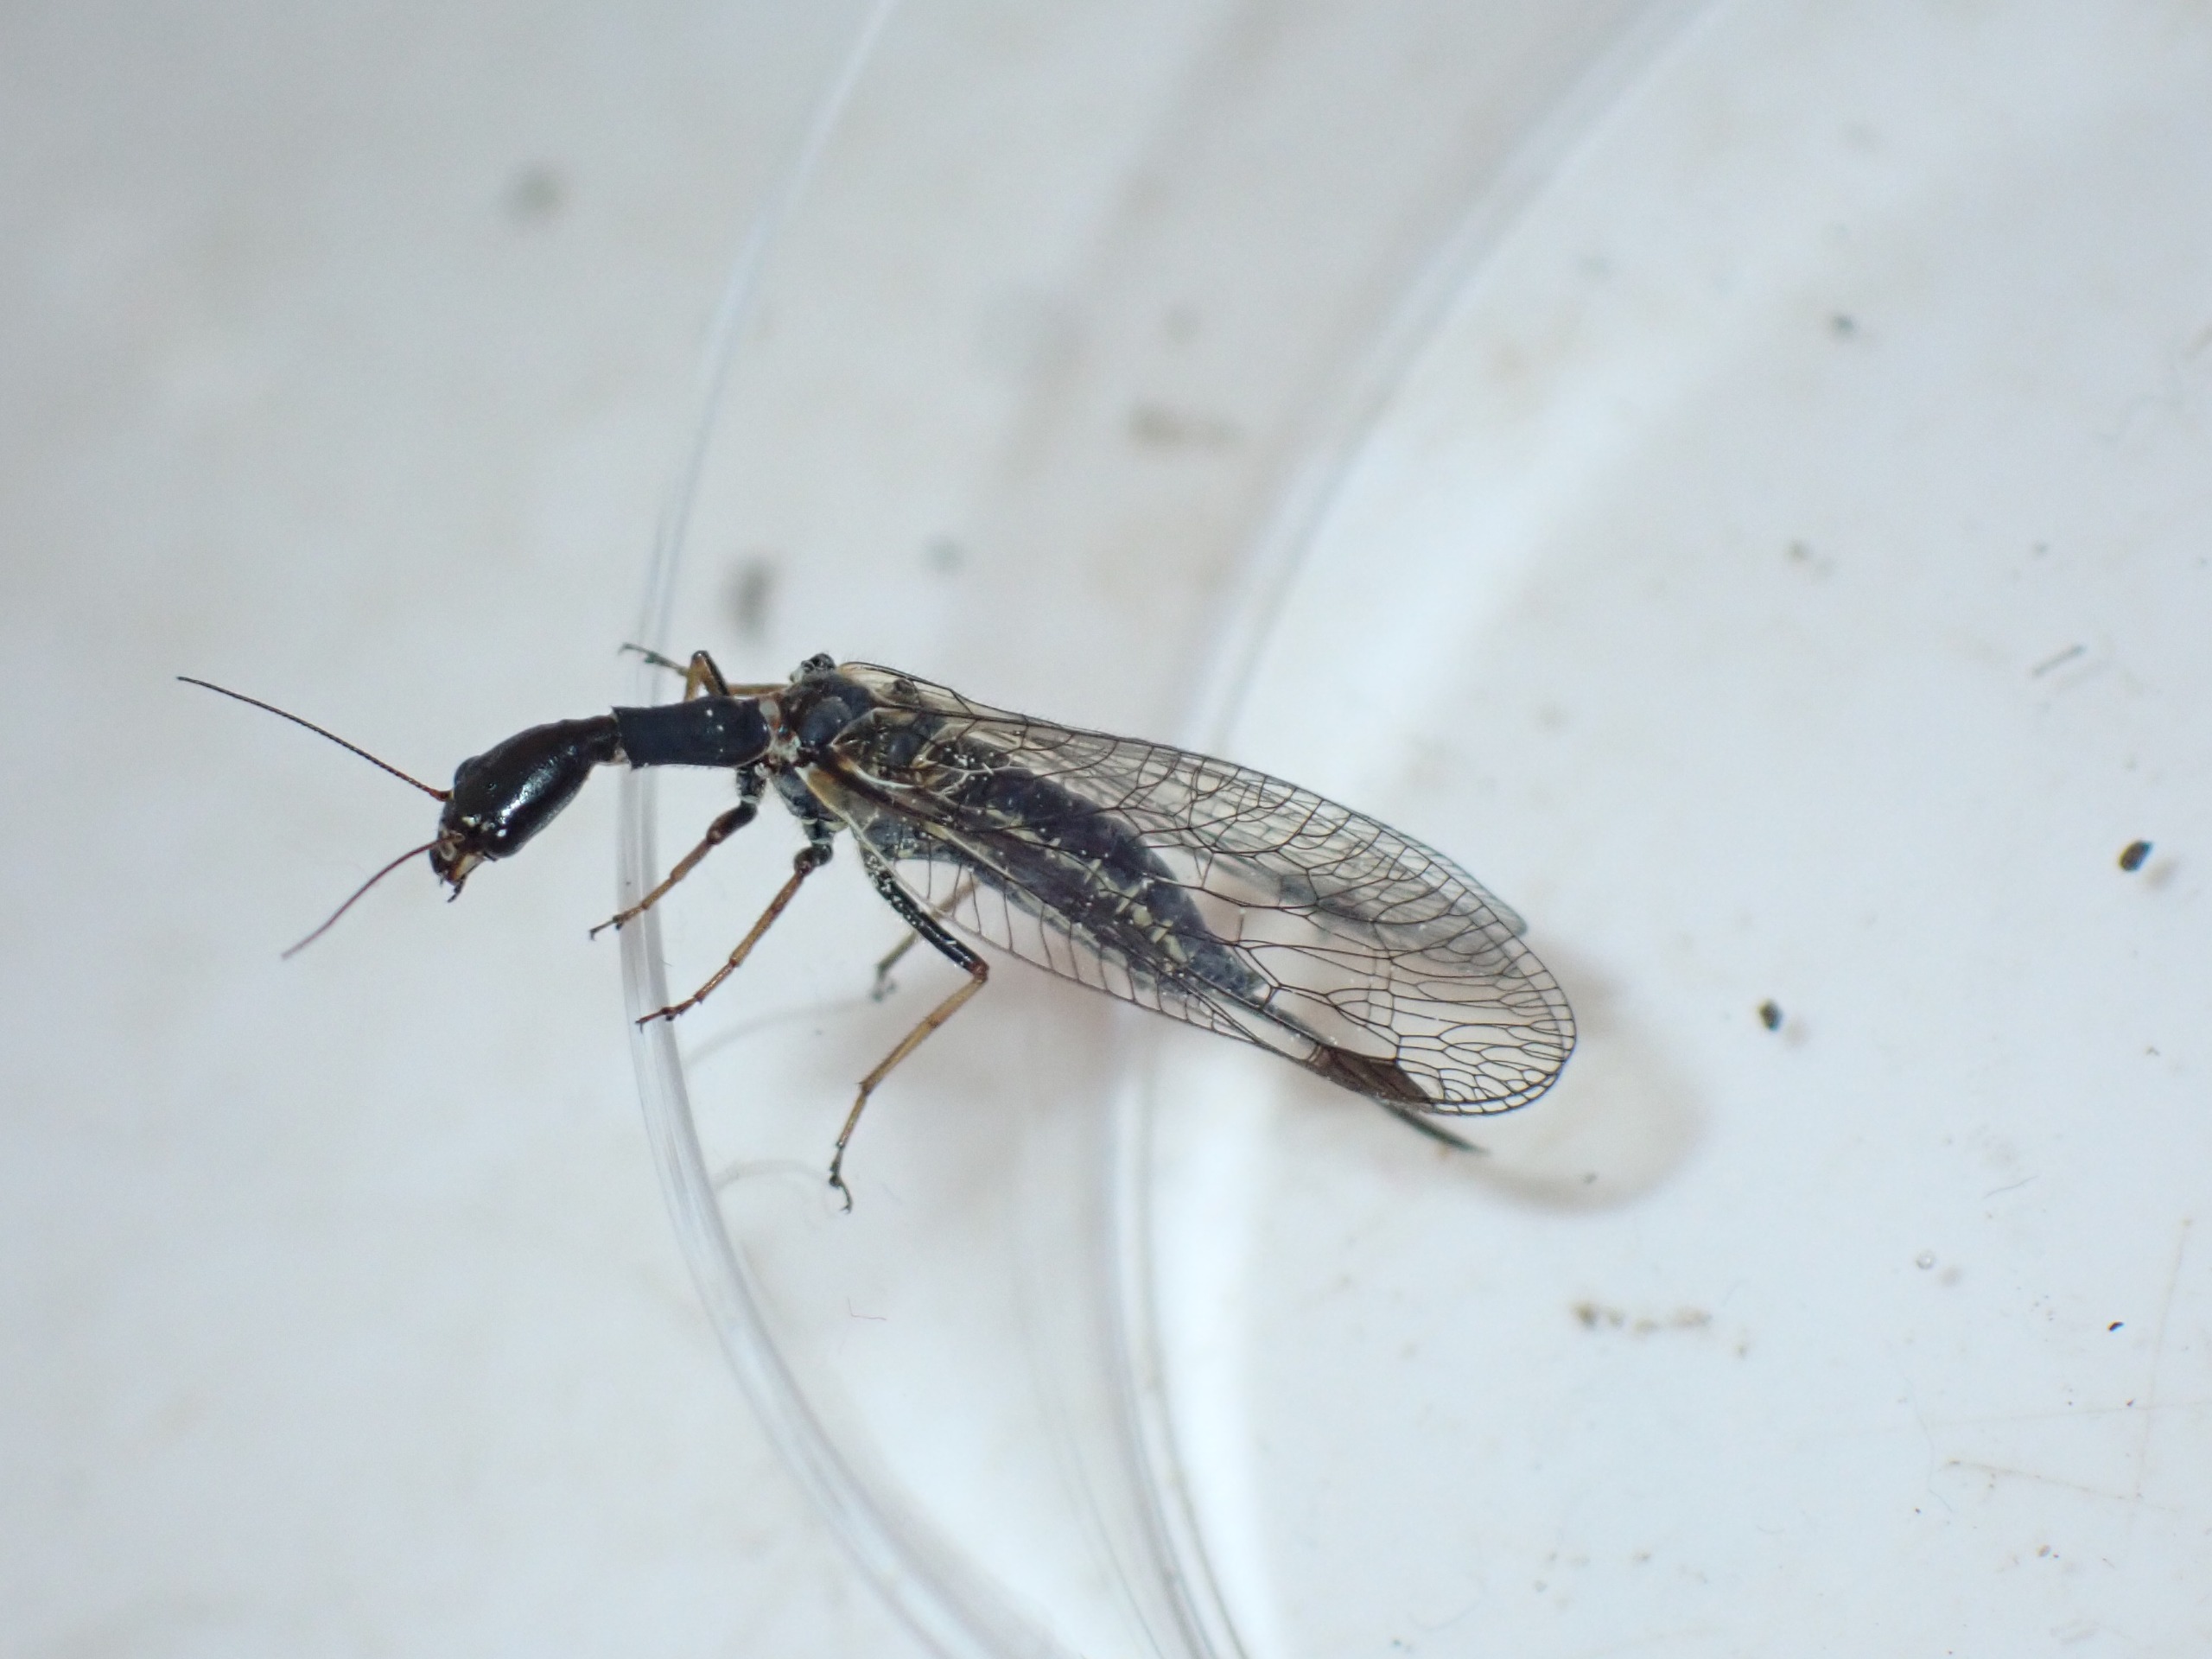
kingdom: Animalia
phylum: Arthropoda
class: Insecta
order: Raphidioptera
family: Raphidiidae
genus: Phaeostigma
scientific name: Phaeostigma notatum
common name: Stor kamelhalsflue
